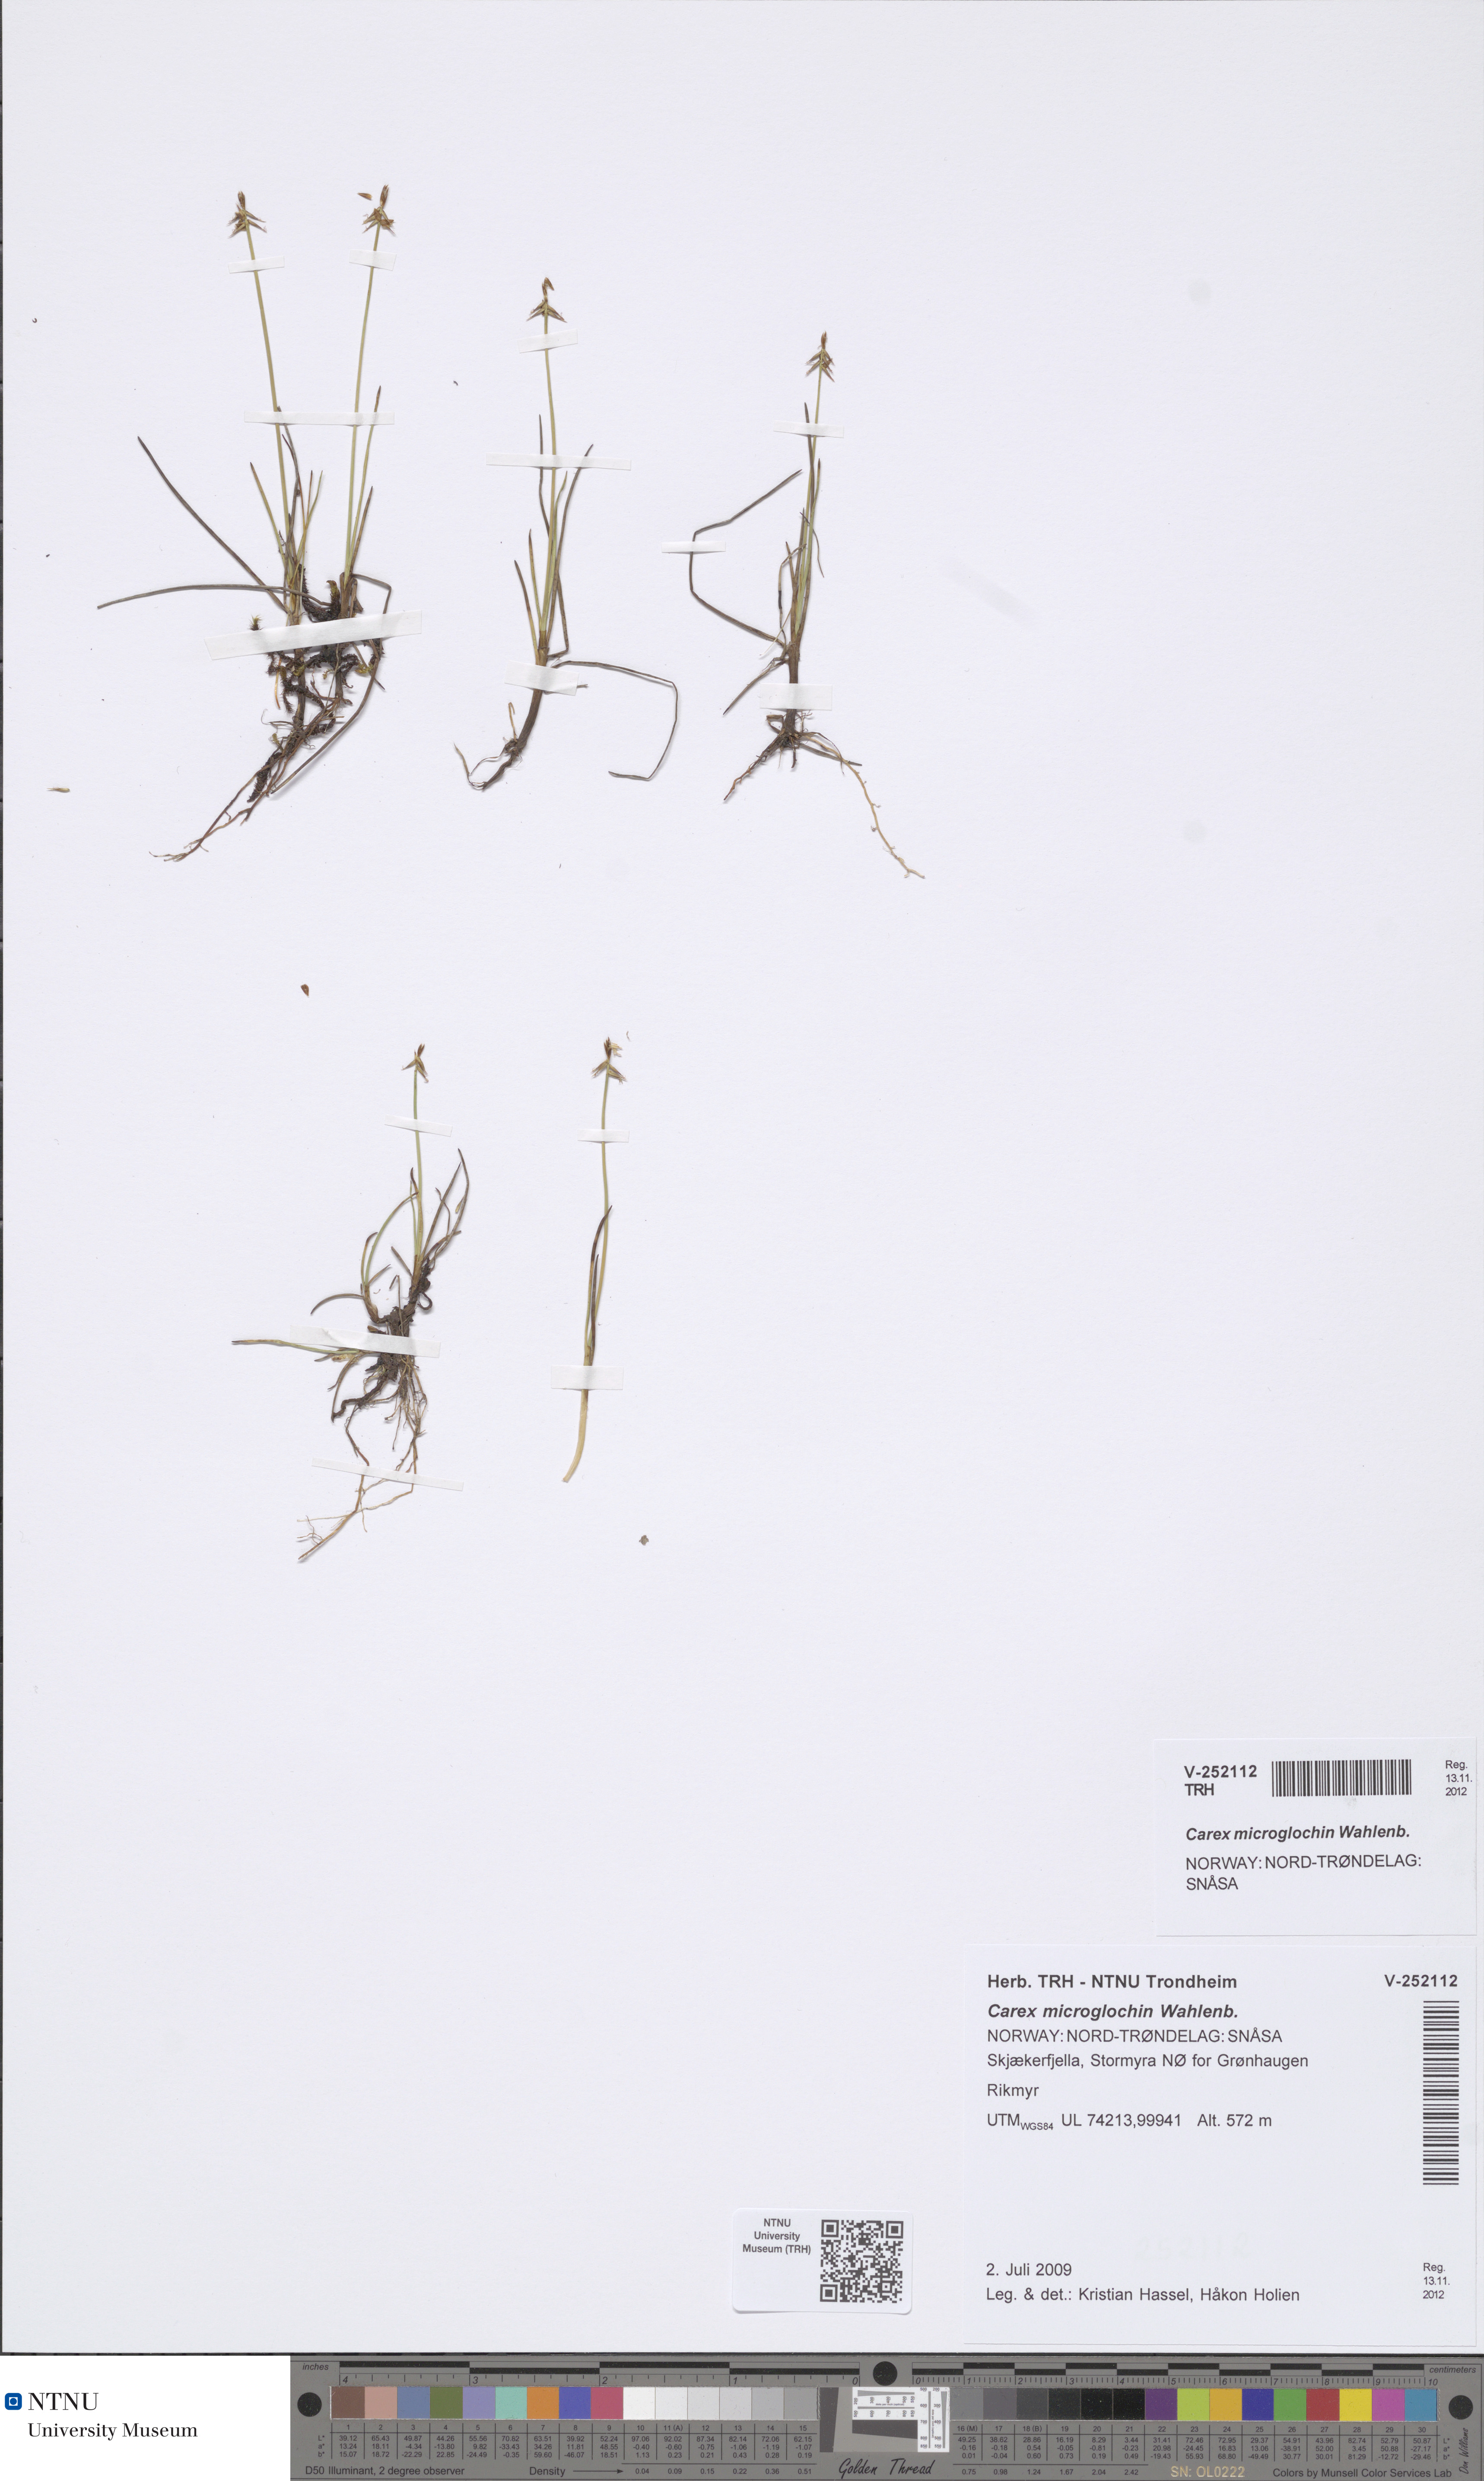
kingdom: Plantae
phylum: Tracheophyta
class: Liliopsida
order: Poales
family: Cyperaceae
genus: Carex
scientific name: Carex microglochin
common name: Bristle sedge
